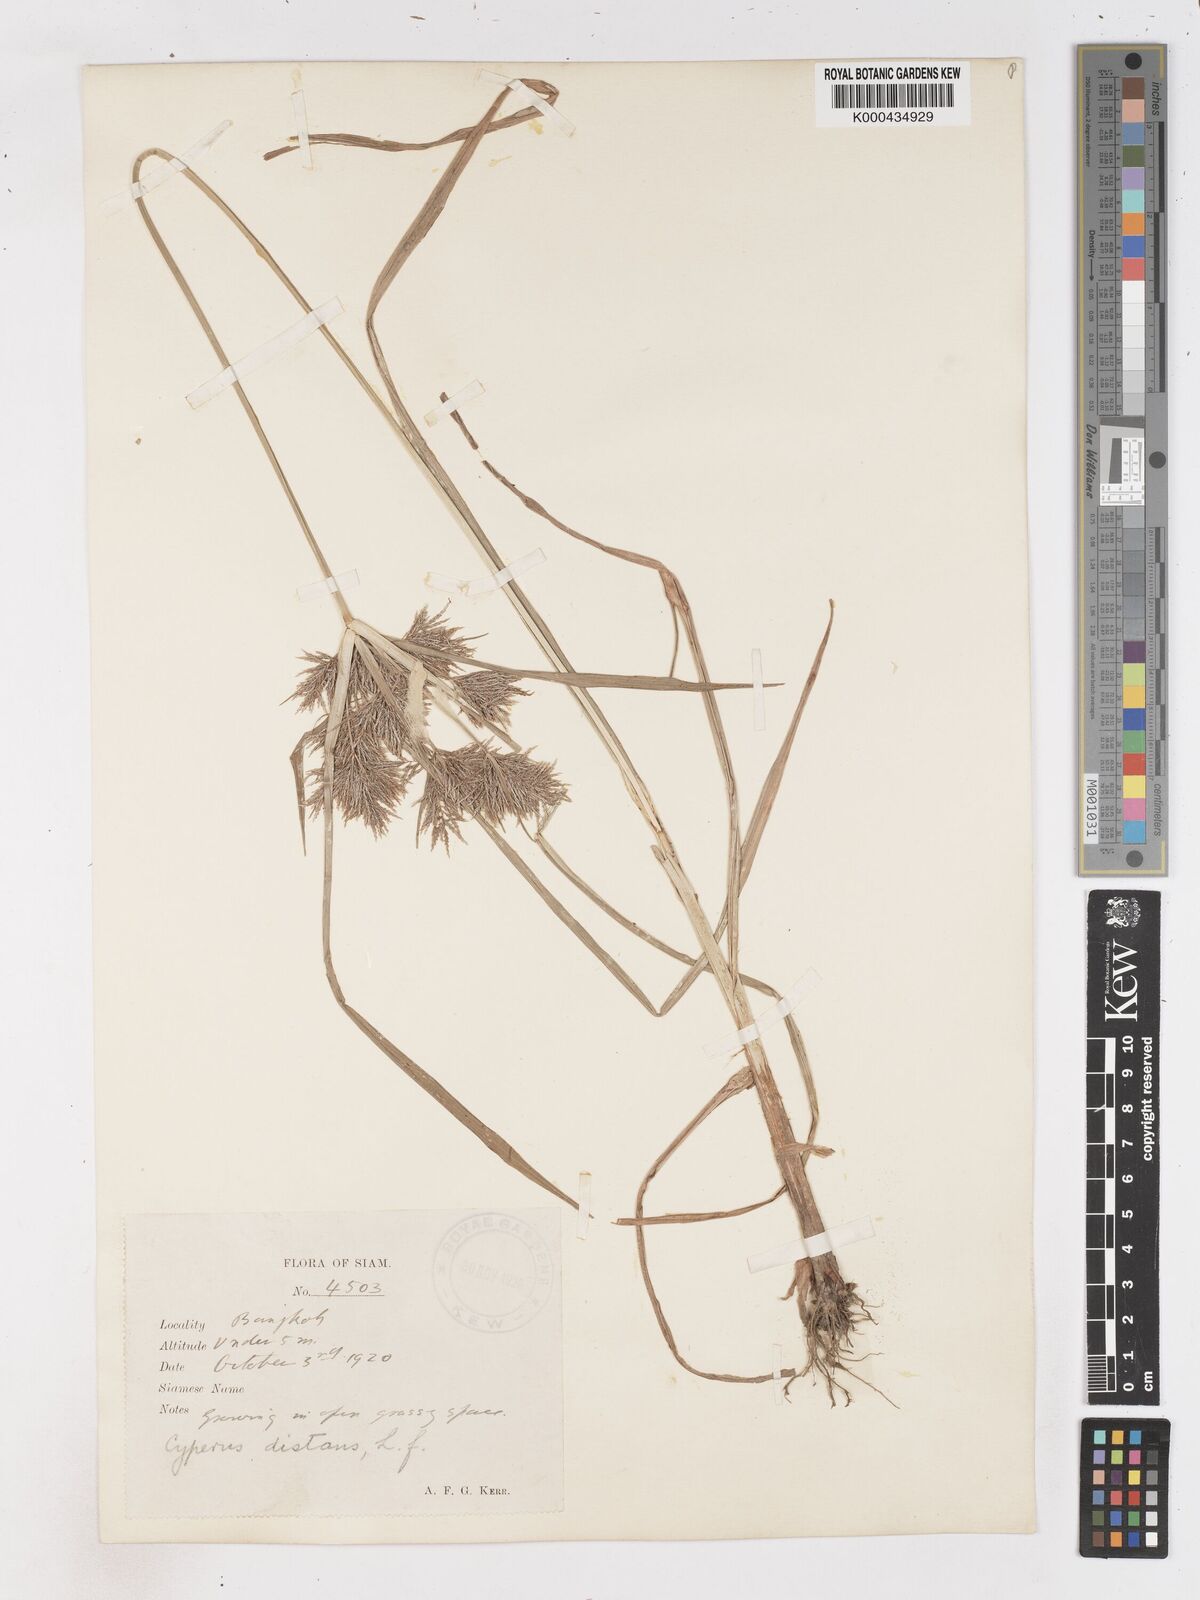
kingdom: Plantae
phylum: Tracheophyta
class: Liliopsida
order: Poales
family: Cyperaceae
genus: Cyperus
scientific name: Cyperus distans
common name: Slender cyperus
